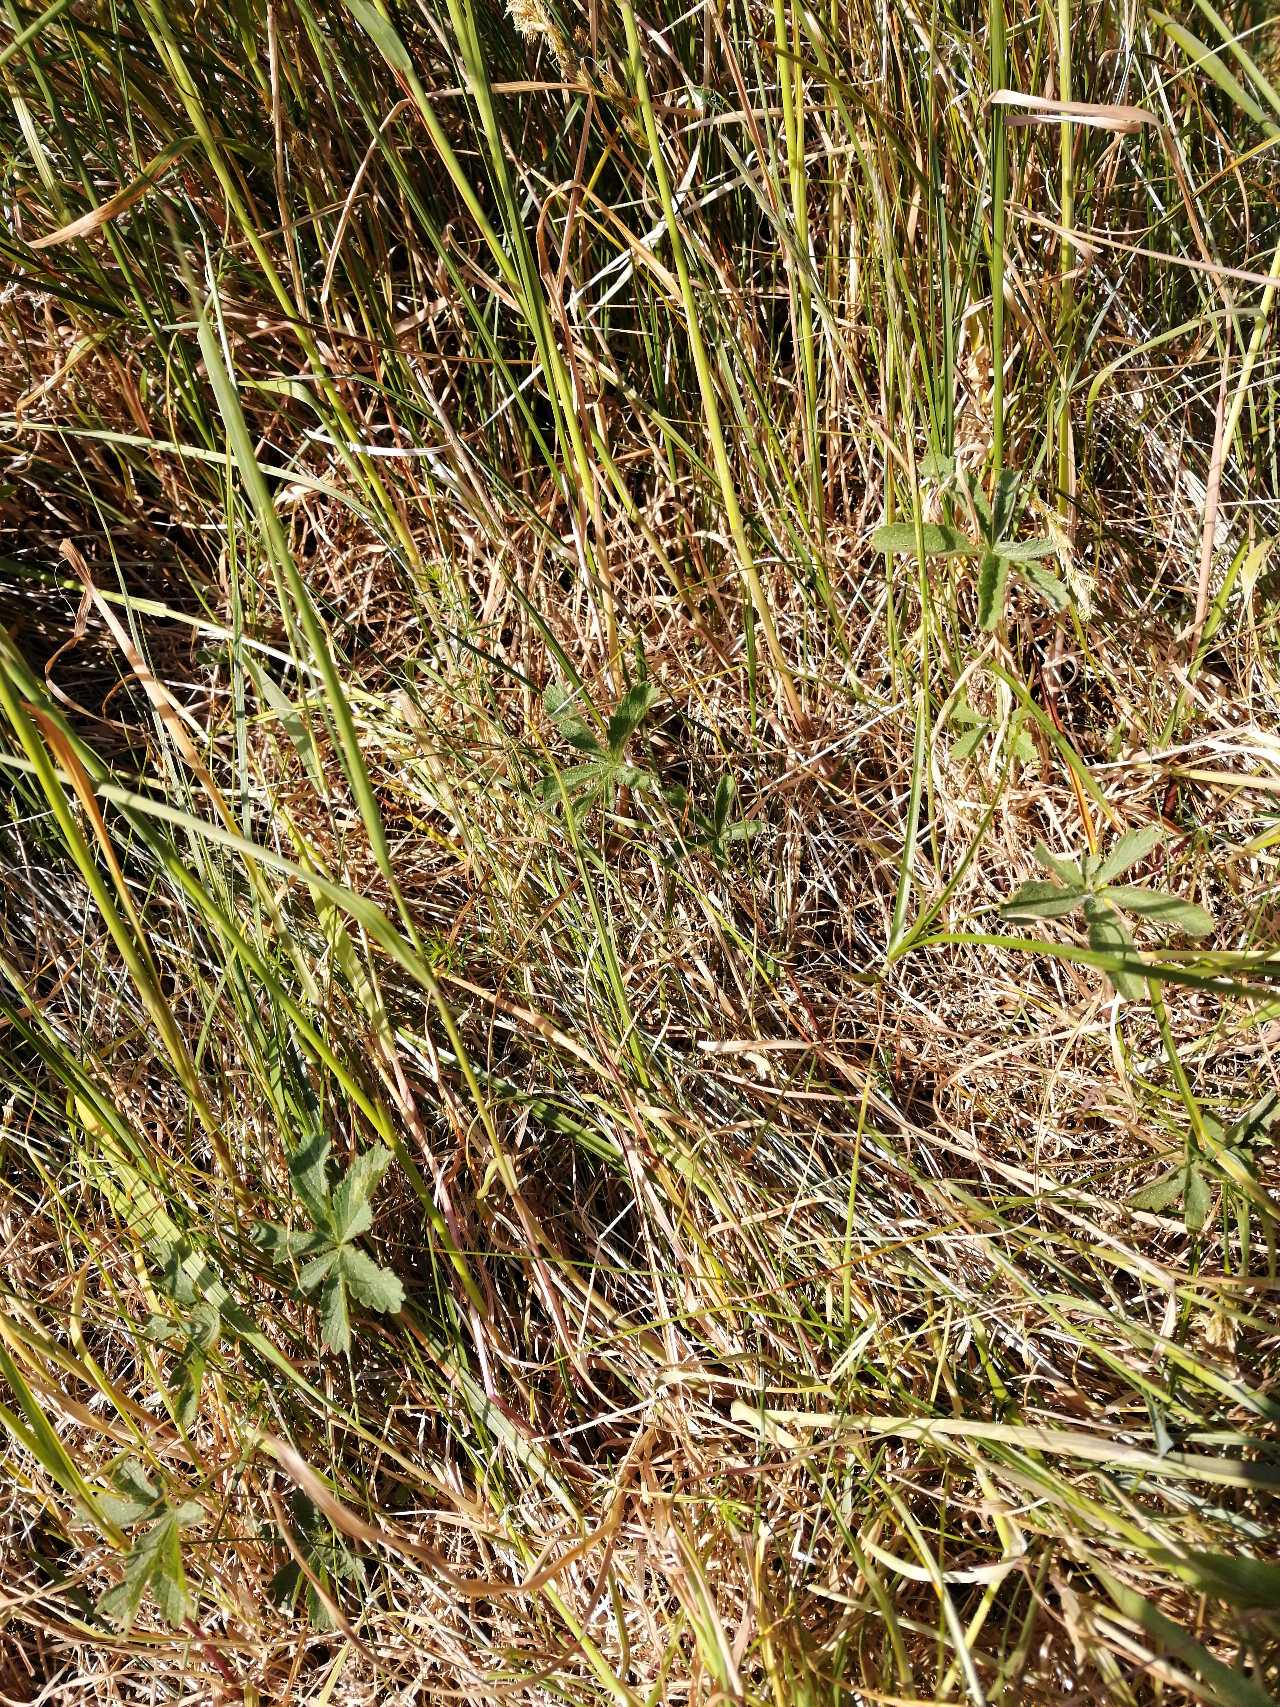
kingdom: Plantae
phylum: Tracheophyta
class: Magnoliopsida
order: Rosales
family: Rosaceae
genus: Potentilla
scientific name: Potentilla reptans
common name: Krybende potentil
